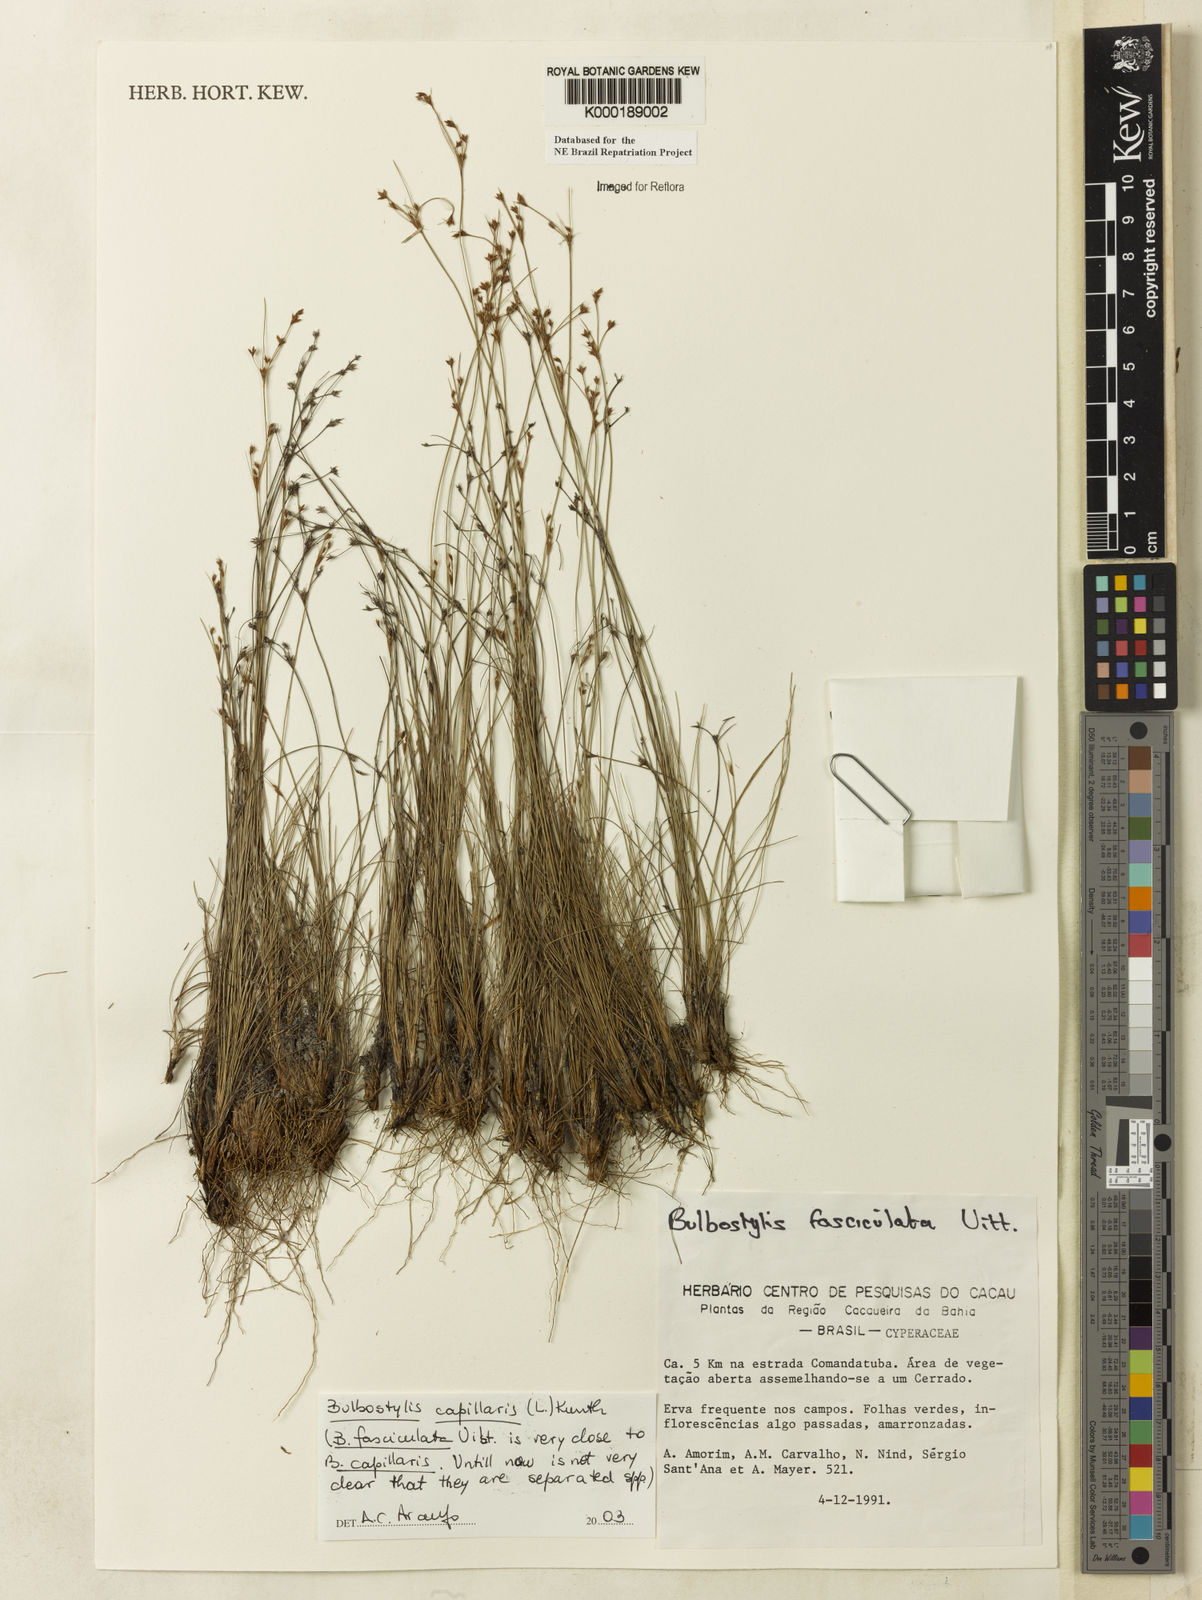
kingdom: Plantae
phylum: Tracheophyta
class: Liliopsida
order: Poales
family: Cyperaceae
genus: Bulbostylis
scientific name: Bulbostylis capillaris
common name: Densetuft hairsedge
